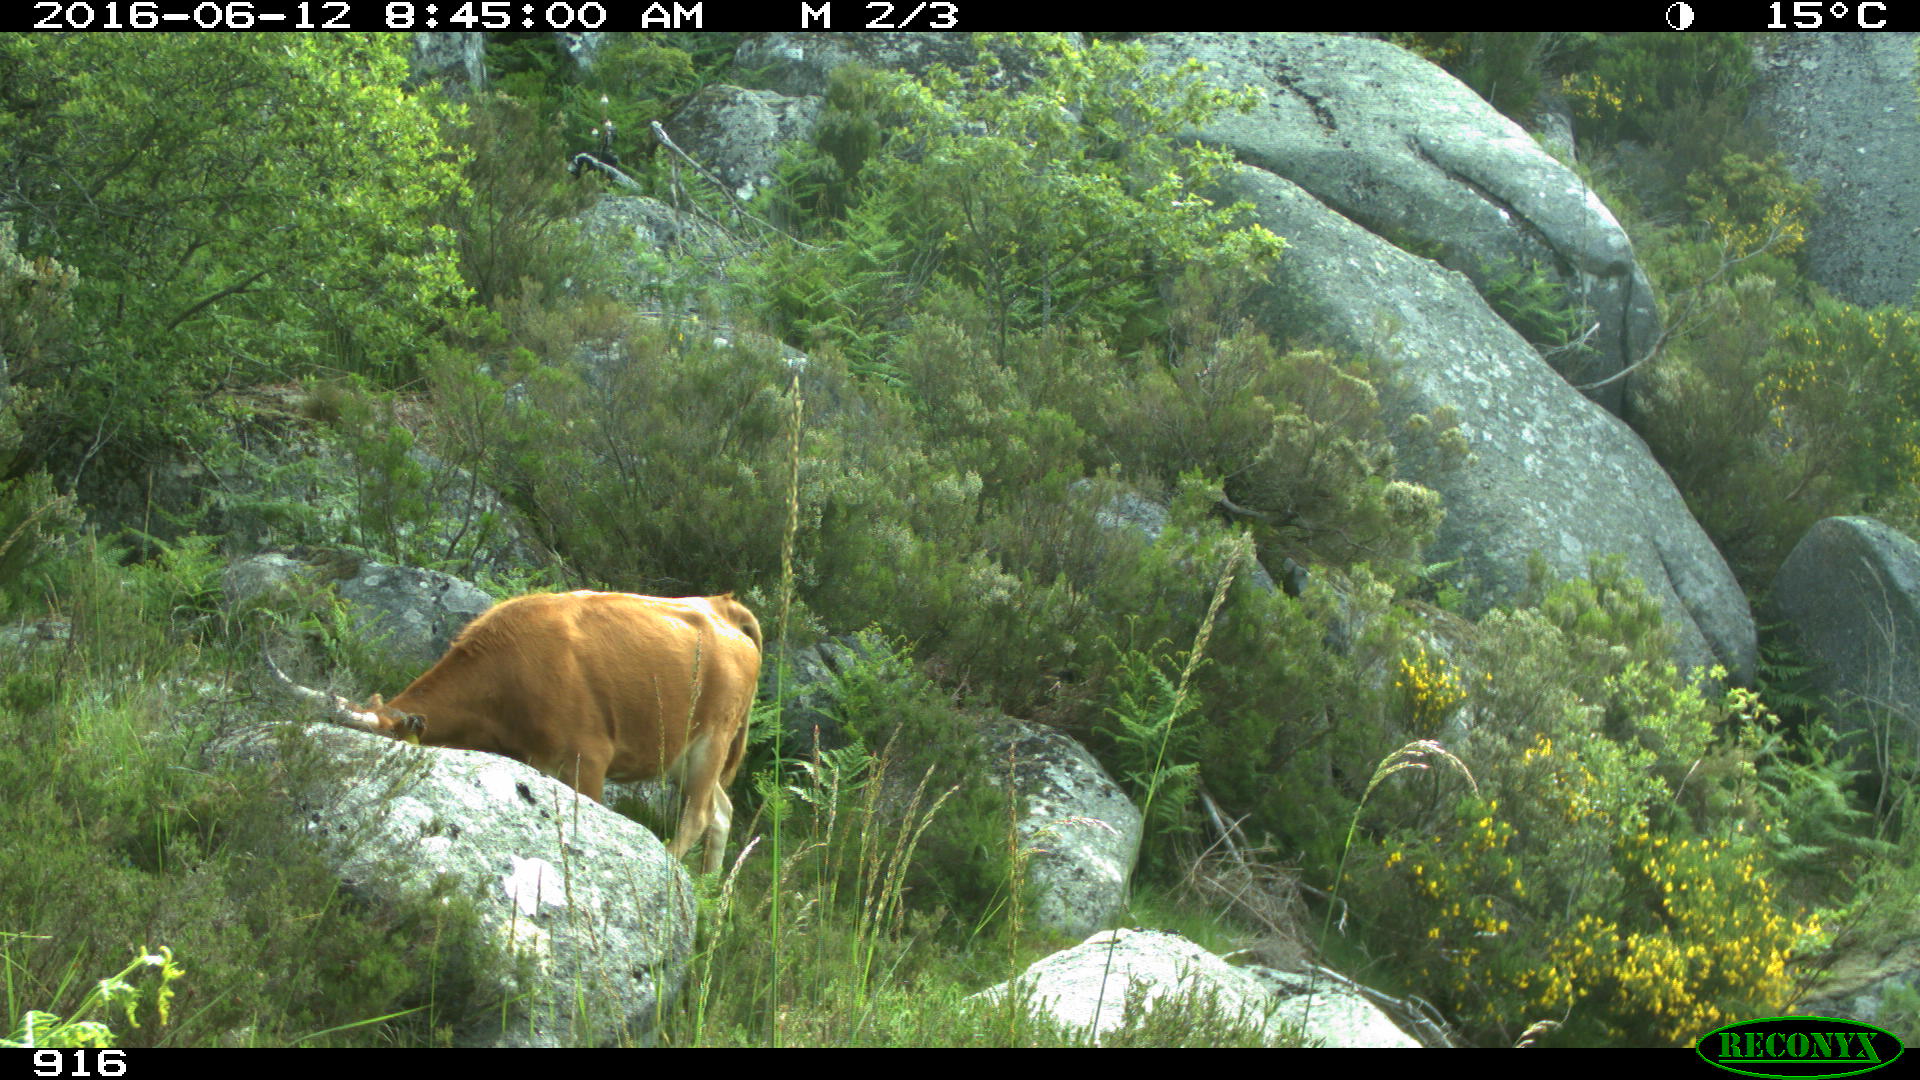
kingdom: Animalia
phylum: Chordata
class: Mammalia
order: Artiodactyla
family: Bovidae
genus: Bos
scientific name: Bos taurus
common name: Domesticated cattle
